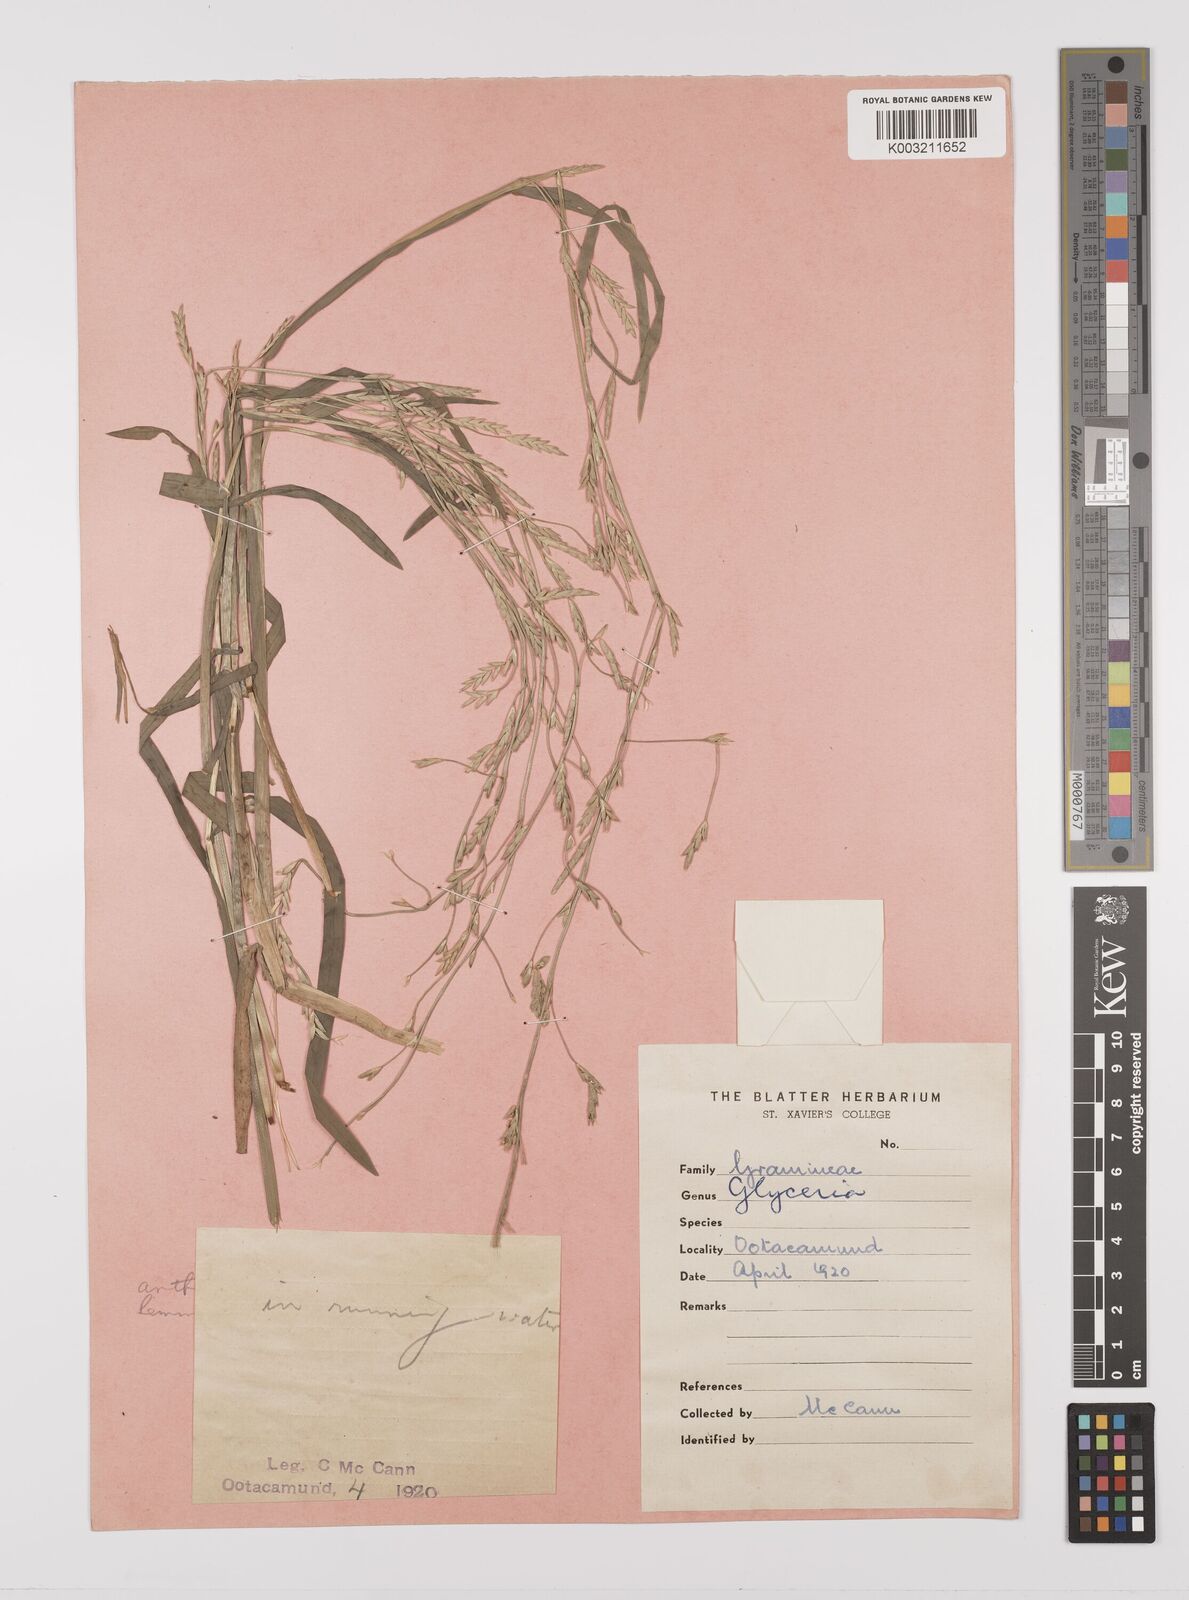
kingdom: Plantae
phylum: Tracheophyta
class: Liliopsida
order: Poales
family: Poaceae
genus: Glyceria
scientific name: Glyceria
